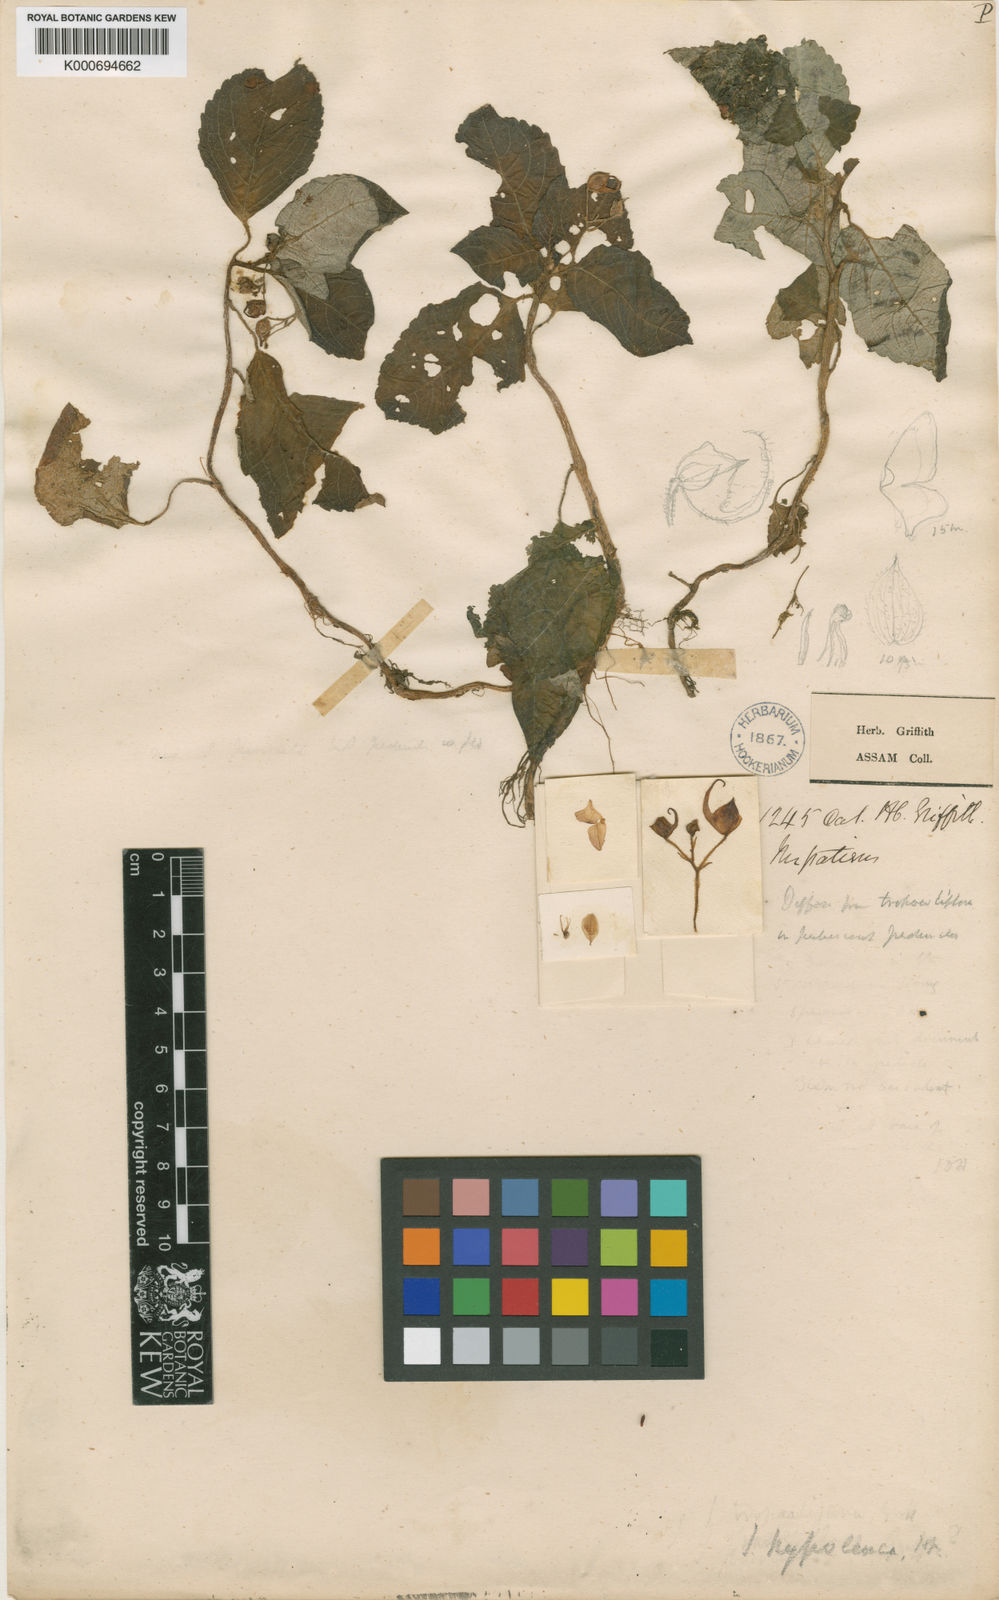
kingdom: Plantae
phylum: Tracheophyta
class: Magnoliopsida
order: Ericales
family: Balsaminaceae
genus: Impatiens
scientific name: Impatiens
